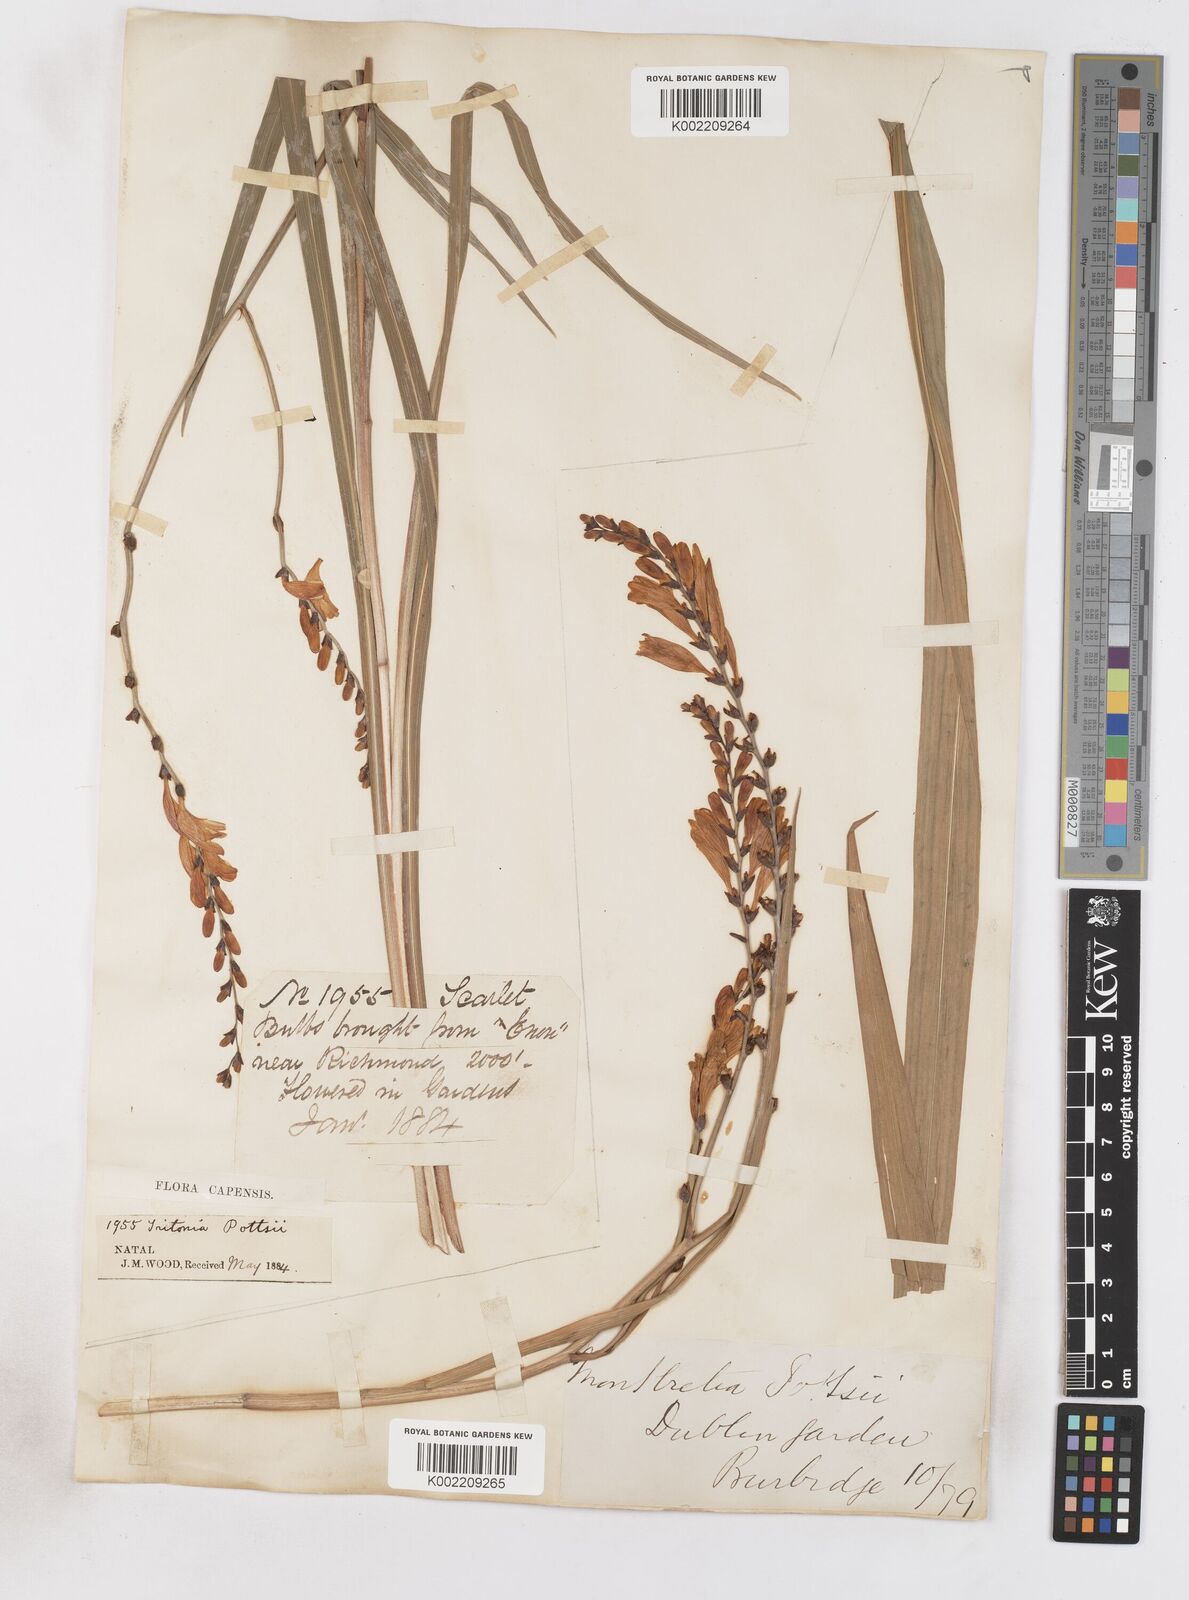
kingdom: Plantae
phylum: Tracheophyta
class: Liliopsida
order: Asparagales
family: Iridaceae
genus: Crocosmia
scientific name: Crocosmia pottsii
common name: Pott's montbretia
